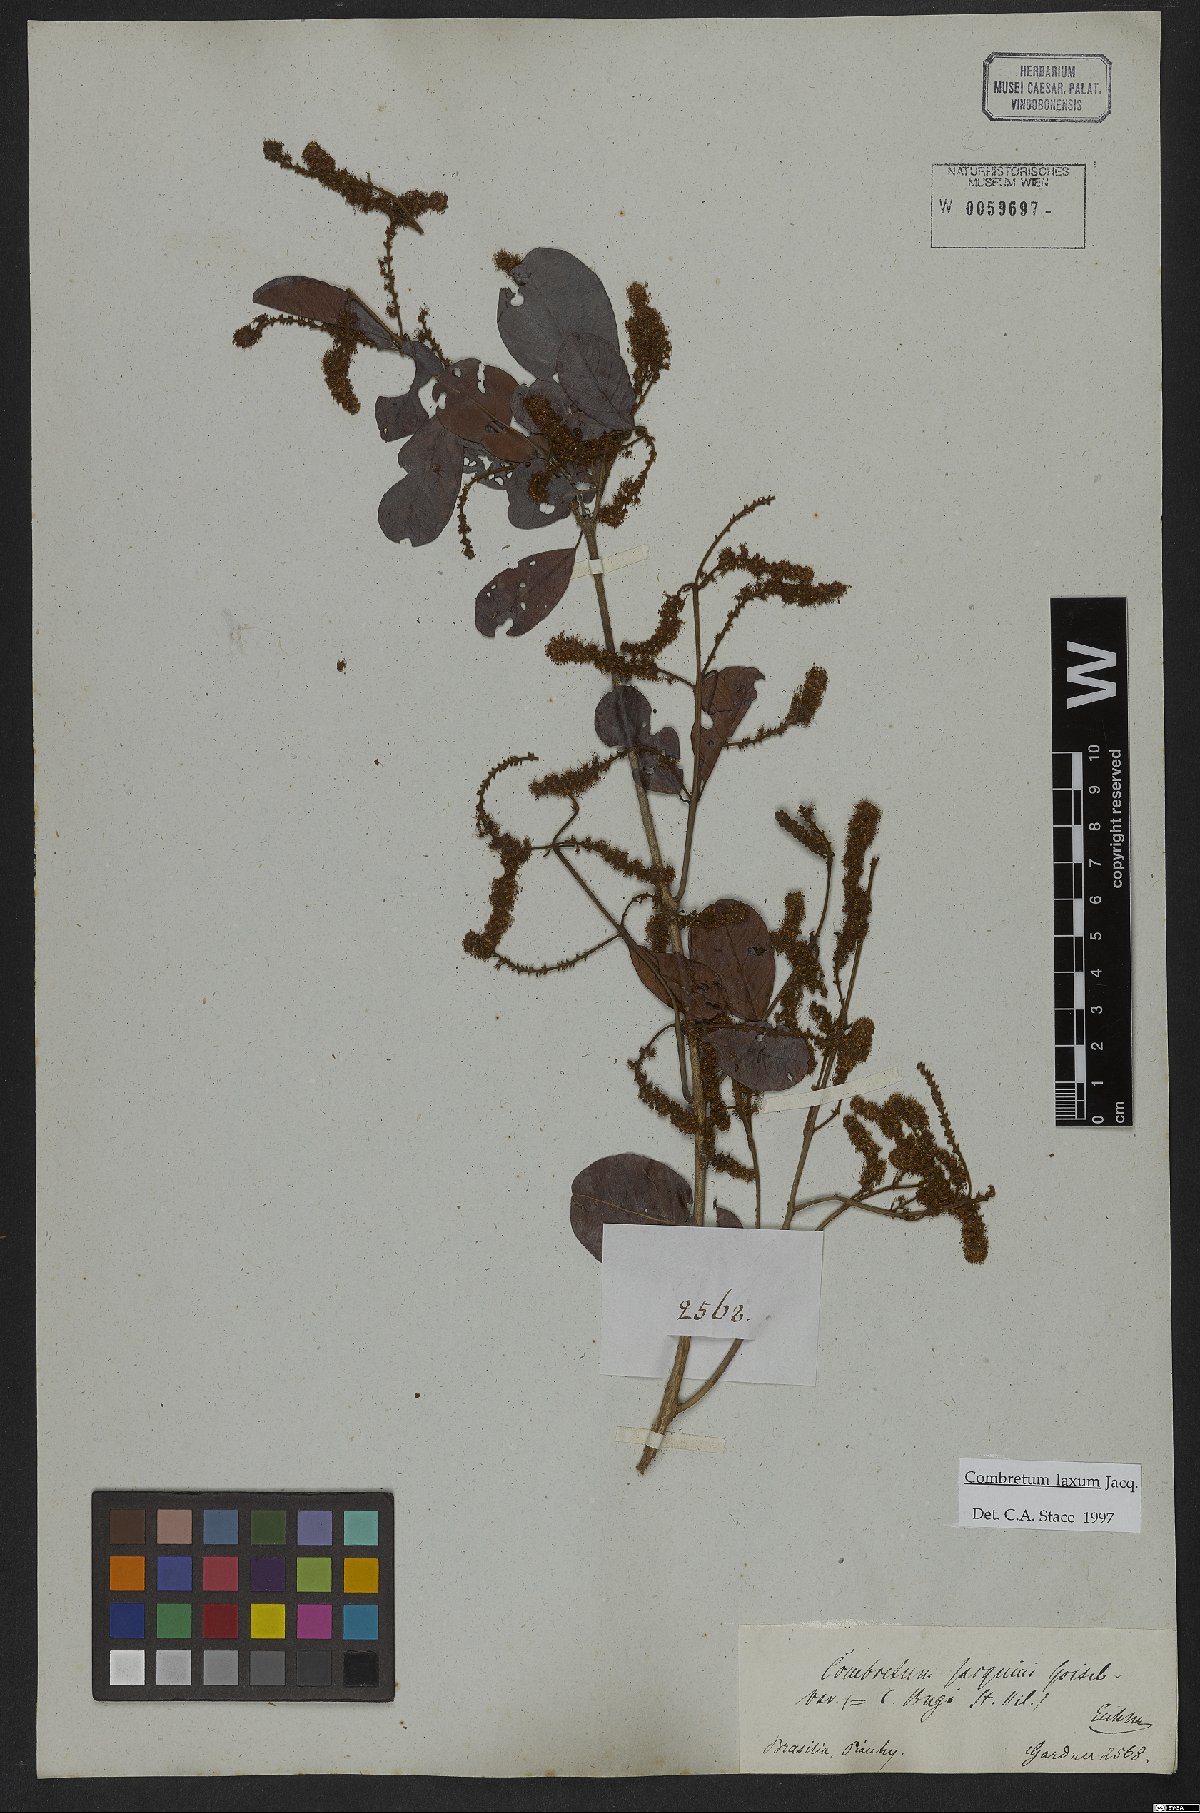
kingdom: Plantae
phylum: Tracheophyta
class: Magnoliopsida
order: Myrtales
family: Combretaceae
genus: Combretum
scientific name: Combretum laxum
